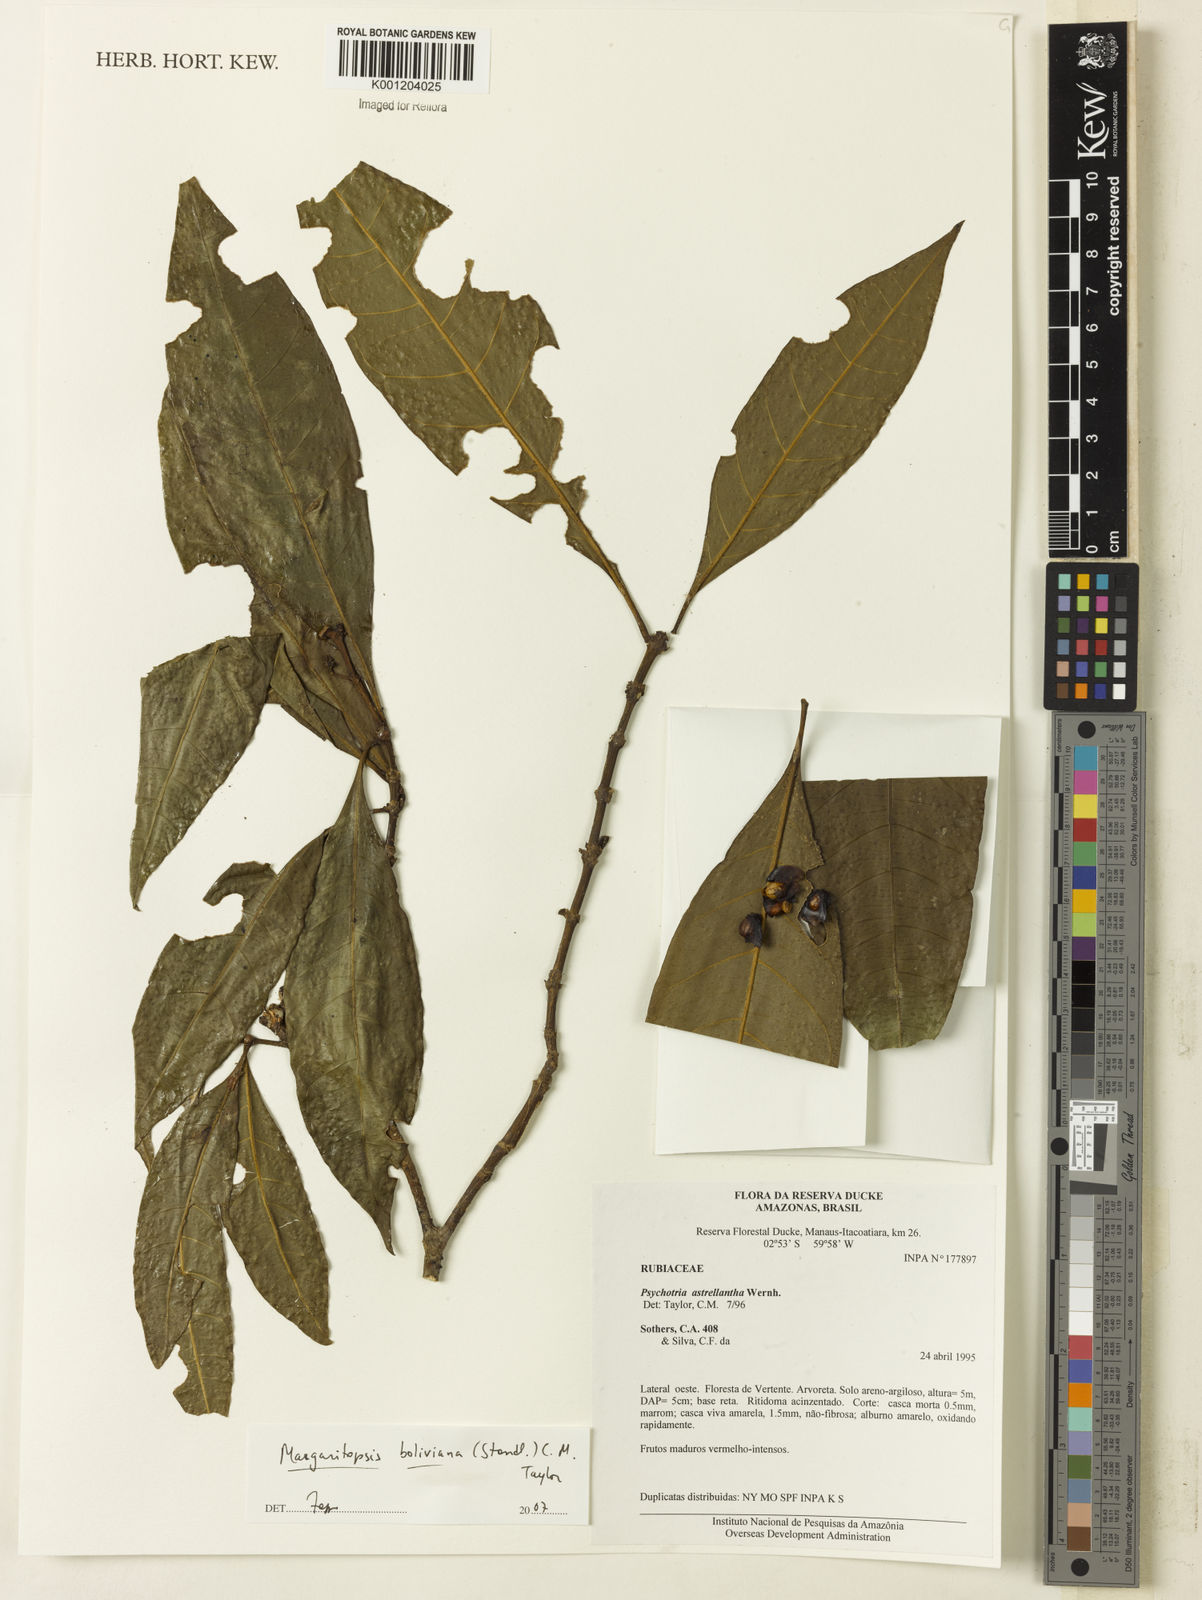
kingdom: Plantae
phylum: Tracheophyta
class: Magnoliopsida
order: Gentianales
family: Rubiaceae
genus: Eumachia
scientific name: Eumachia boliviana
